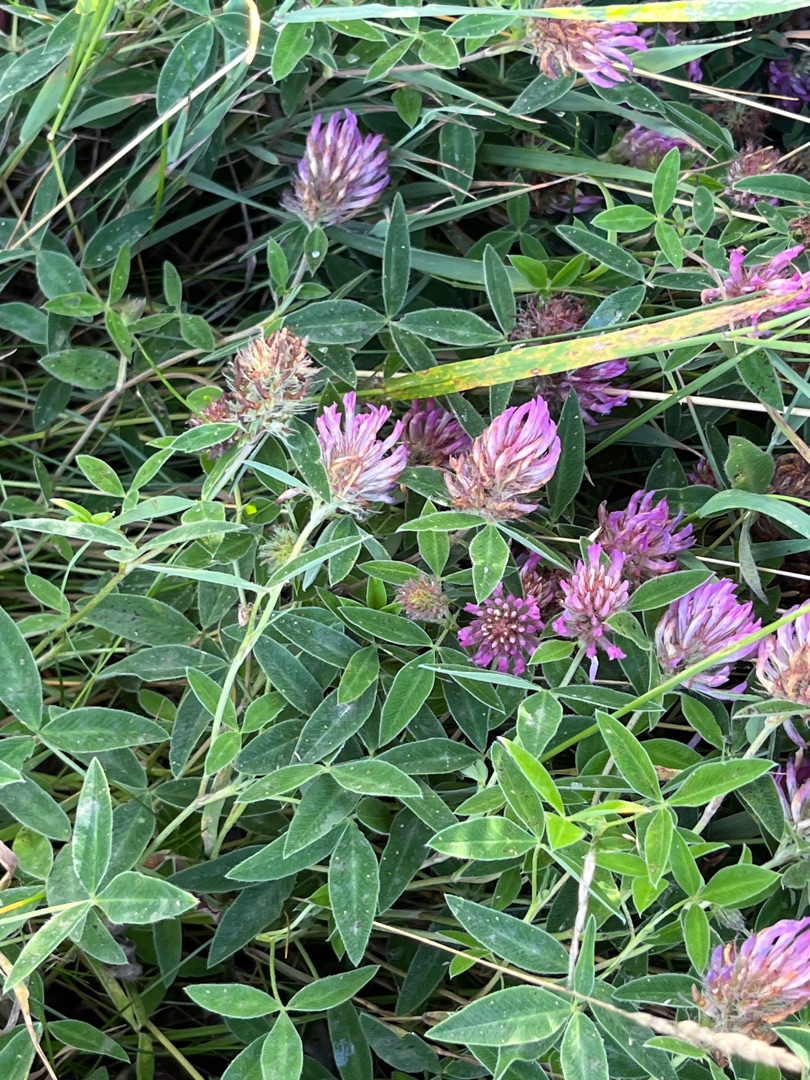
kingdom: Plantae
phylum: Tracheophyta
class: Magnoliopsida
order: Fabales
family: Fabaceae
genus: Trifolium
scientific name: Trifolium medium
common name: Bugtet kløver
